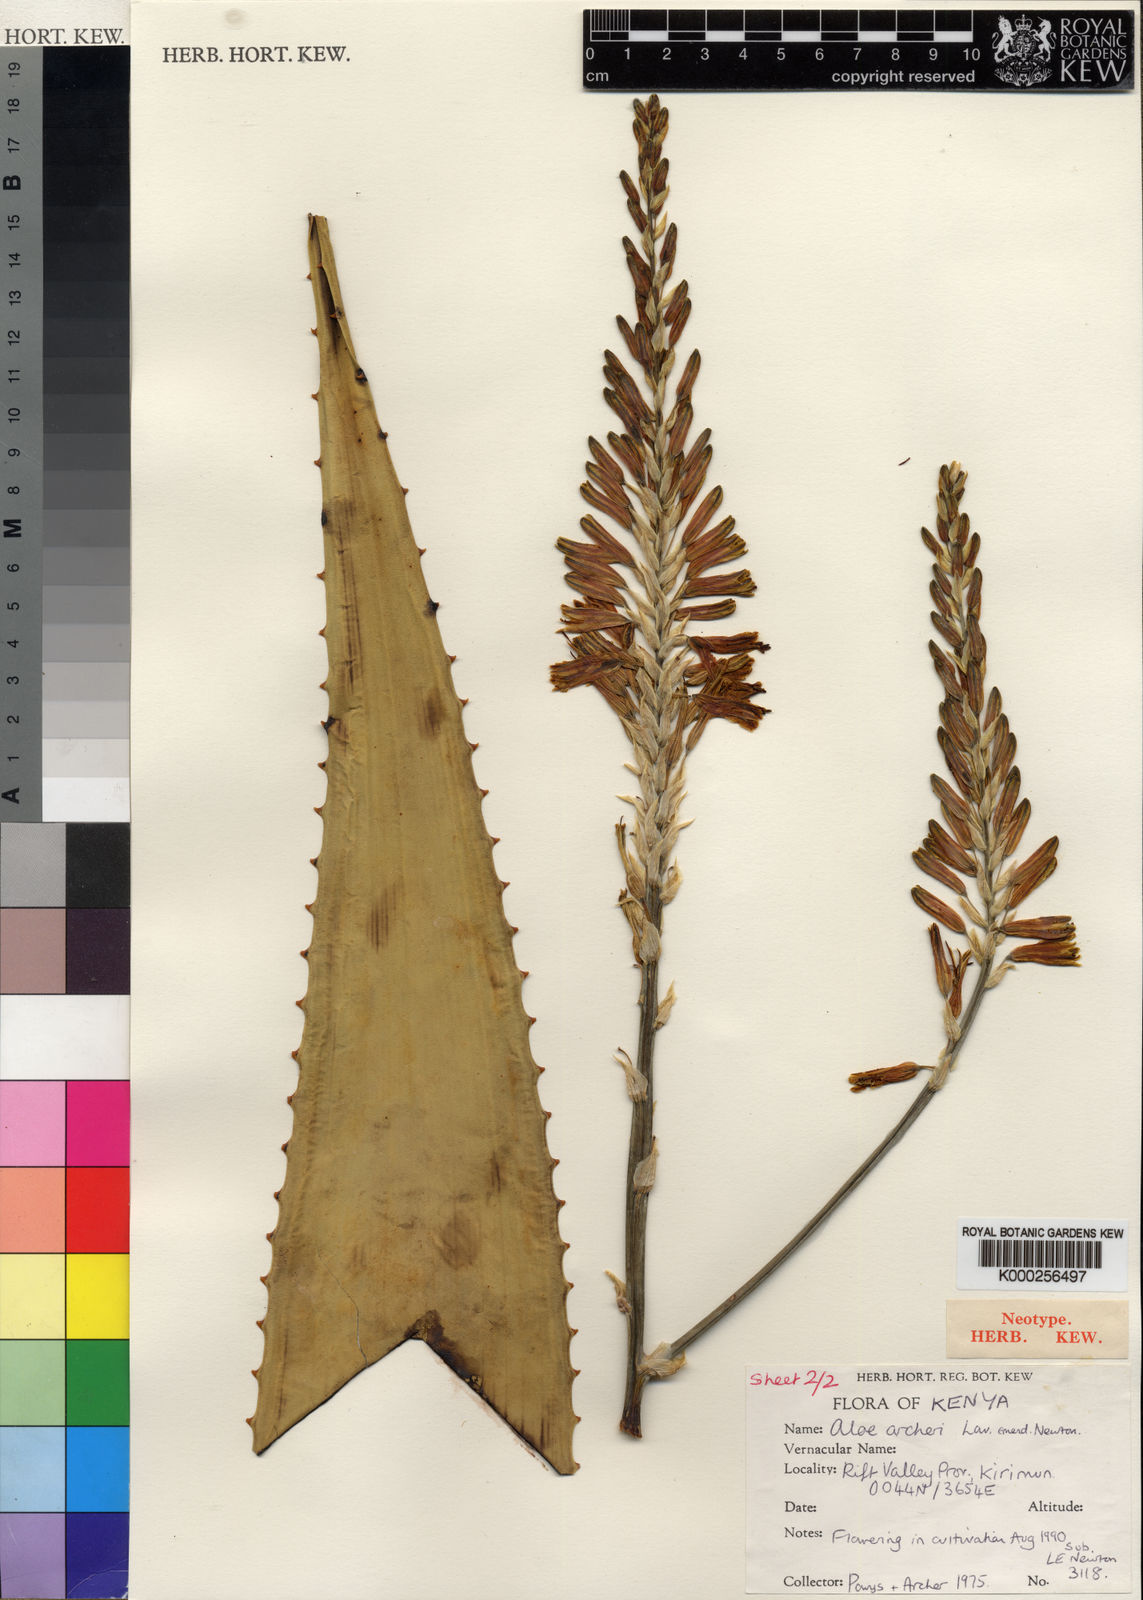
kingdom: Plantae
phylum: Tracheophyta
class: Liliopsida
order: Asparagales
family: Asphodelaceae
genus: Aloe
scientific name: Aloe archeri
